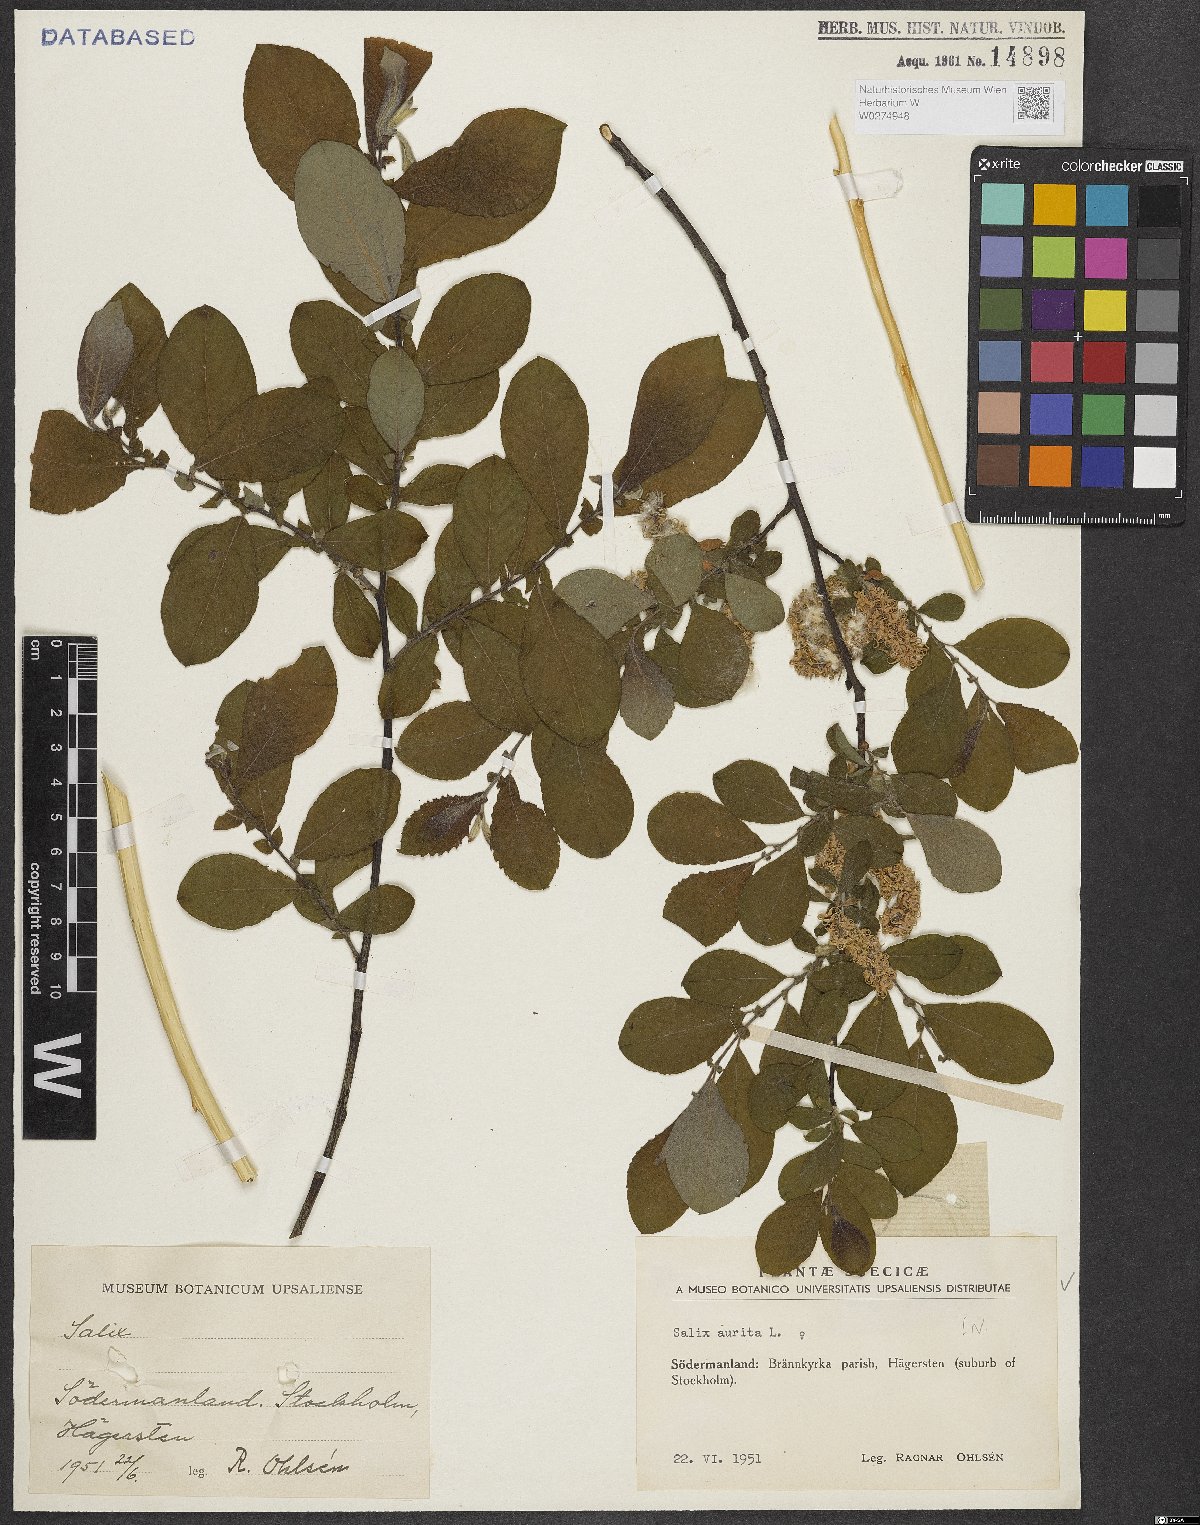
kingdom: Plantae
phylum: Tracheophyta
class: Magnoliopsida
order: Malpighiales
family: Salicaceae
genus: Salix
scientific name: Salix aurita
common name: Eared willow
